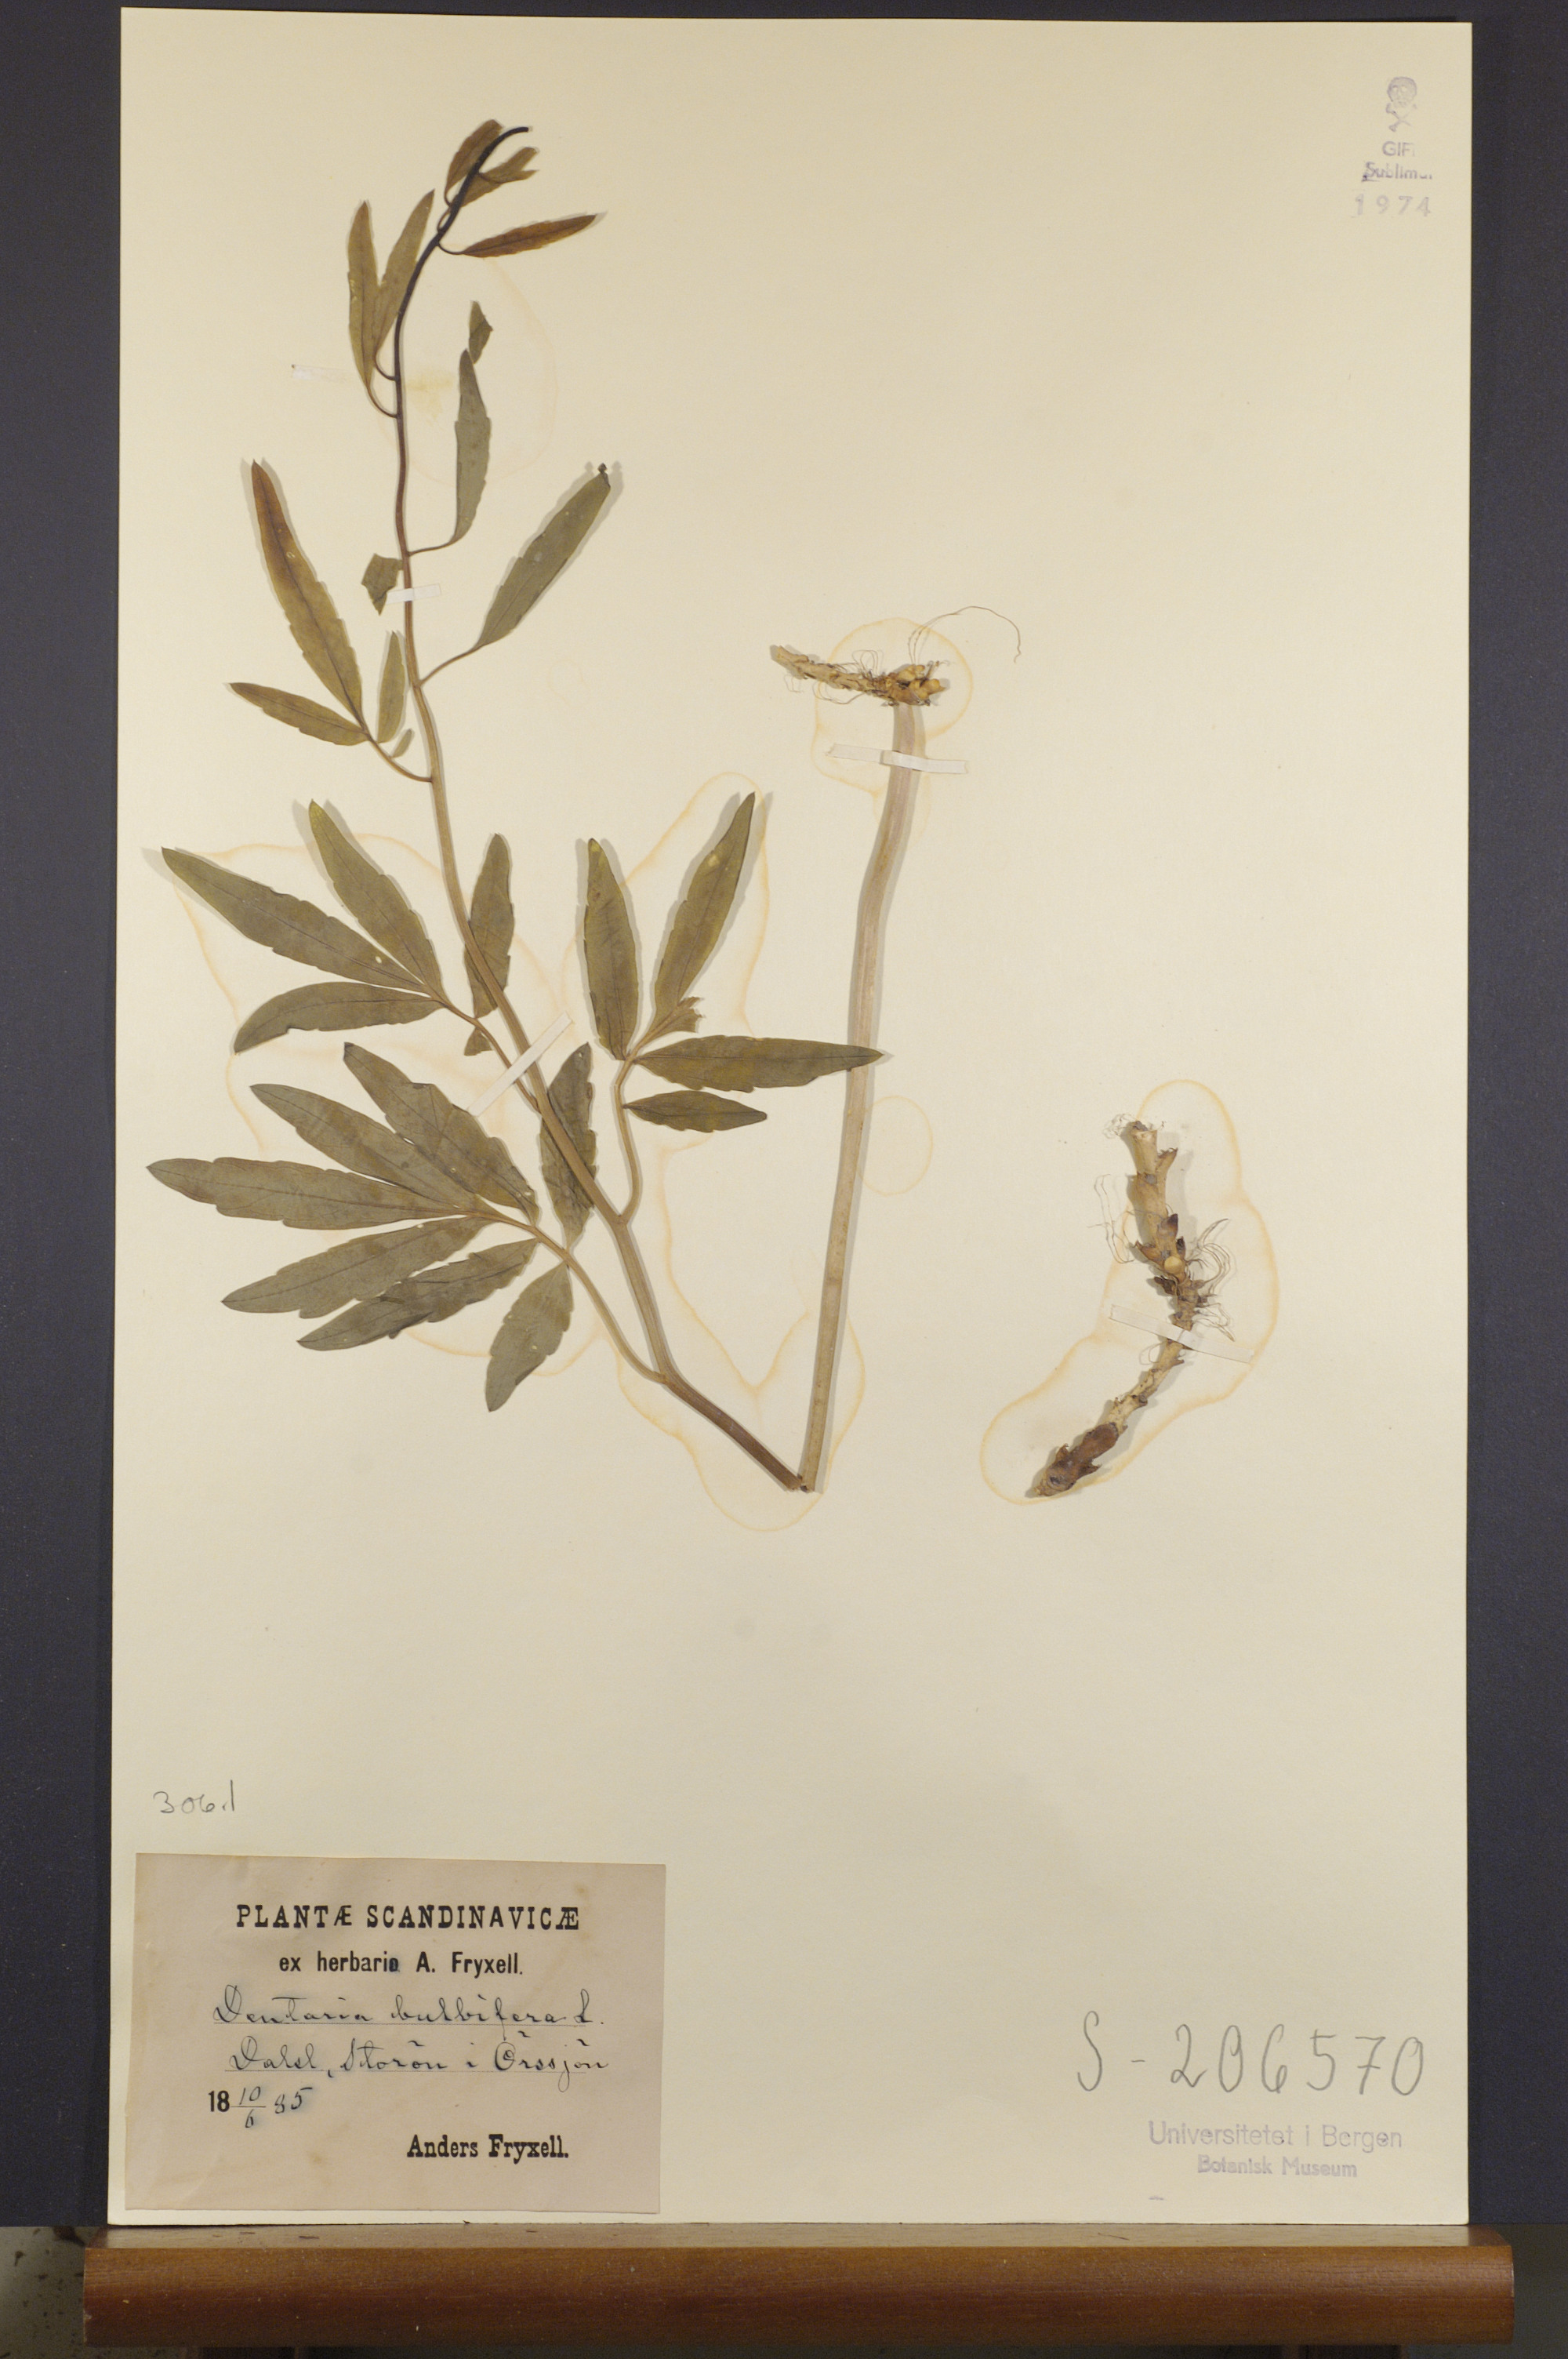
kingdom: Plantae
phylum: Tracheophyta
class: Magnoliopsida
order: Brassicales
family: Brassicaceae
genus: Cardamine
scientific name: Cardamine bulbifera
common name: Coralroot bittercress
